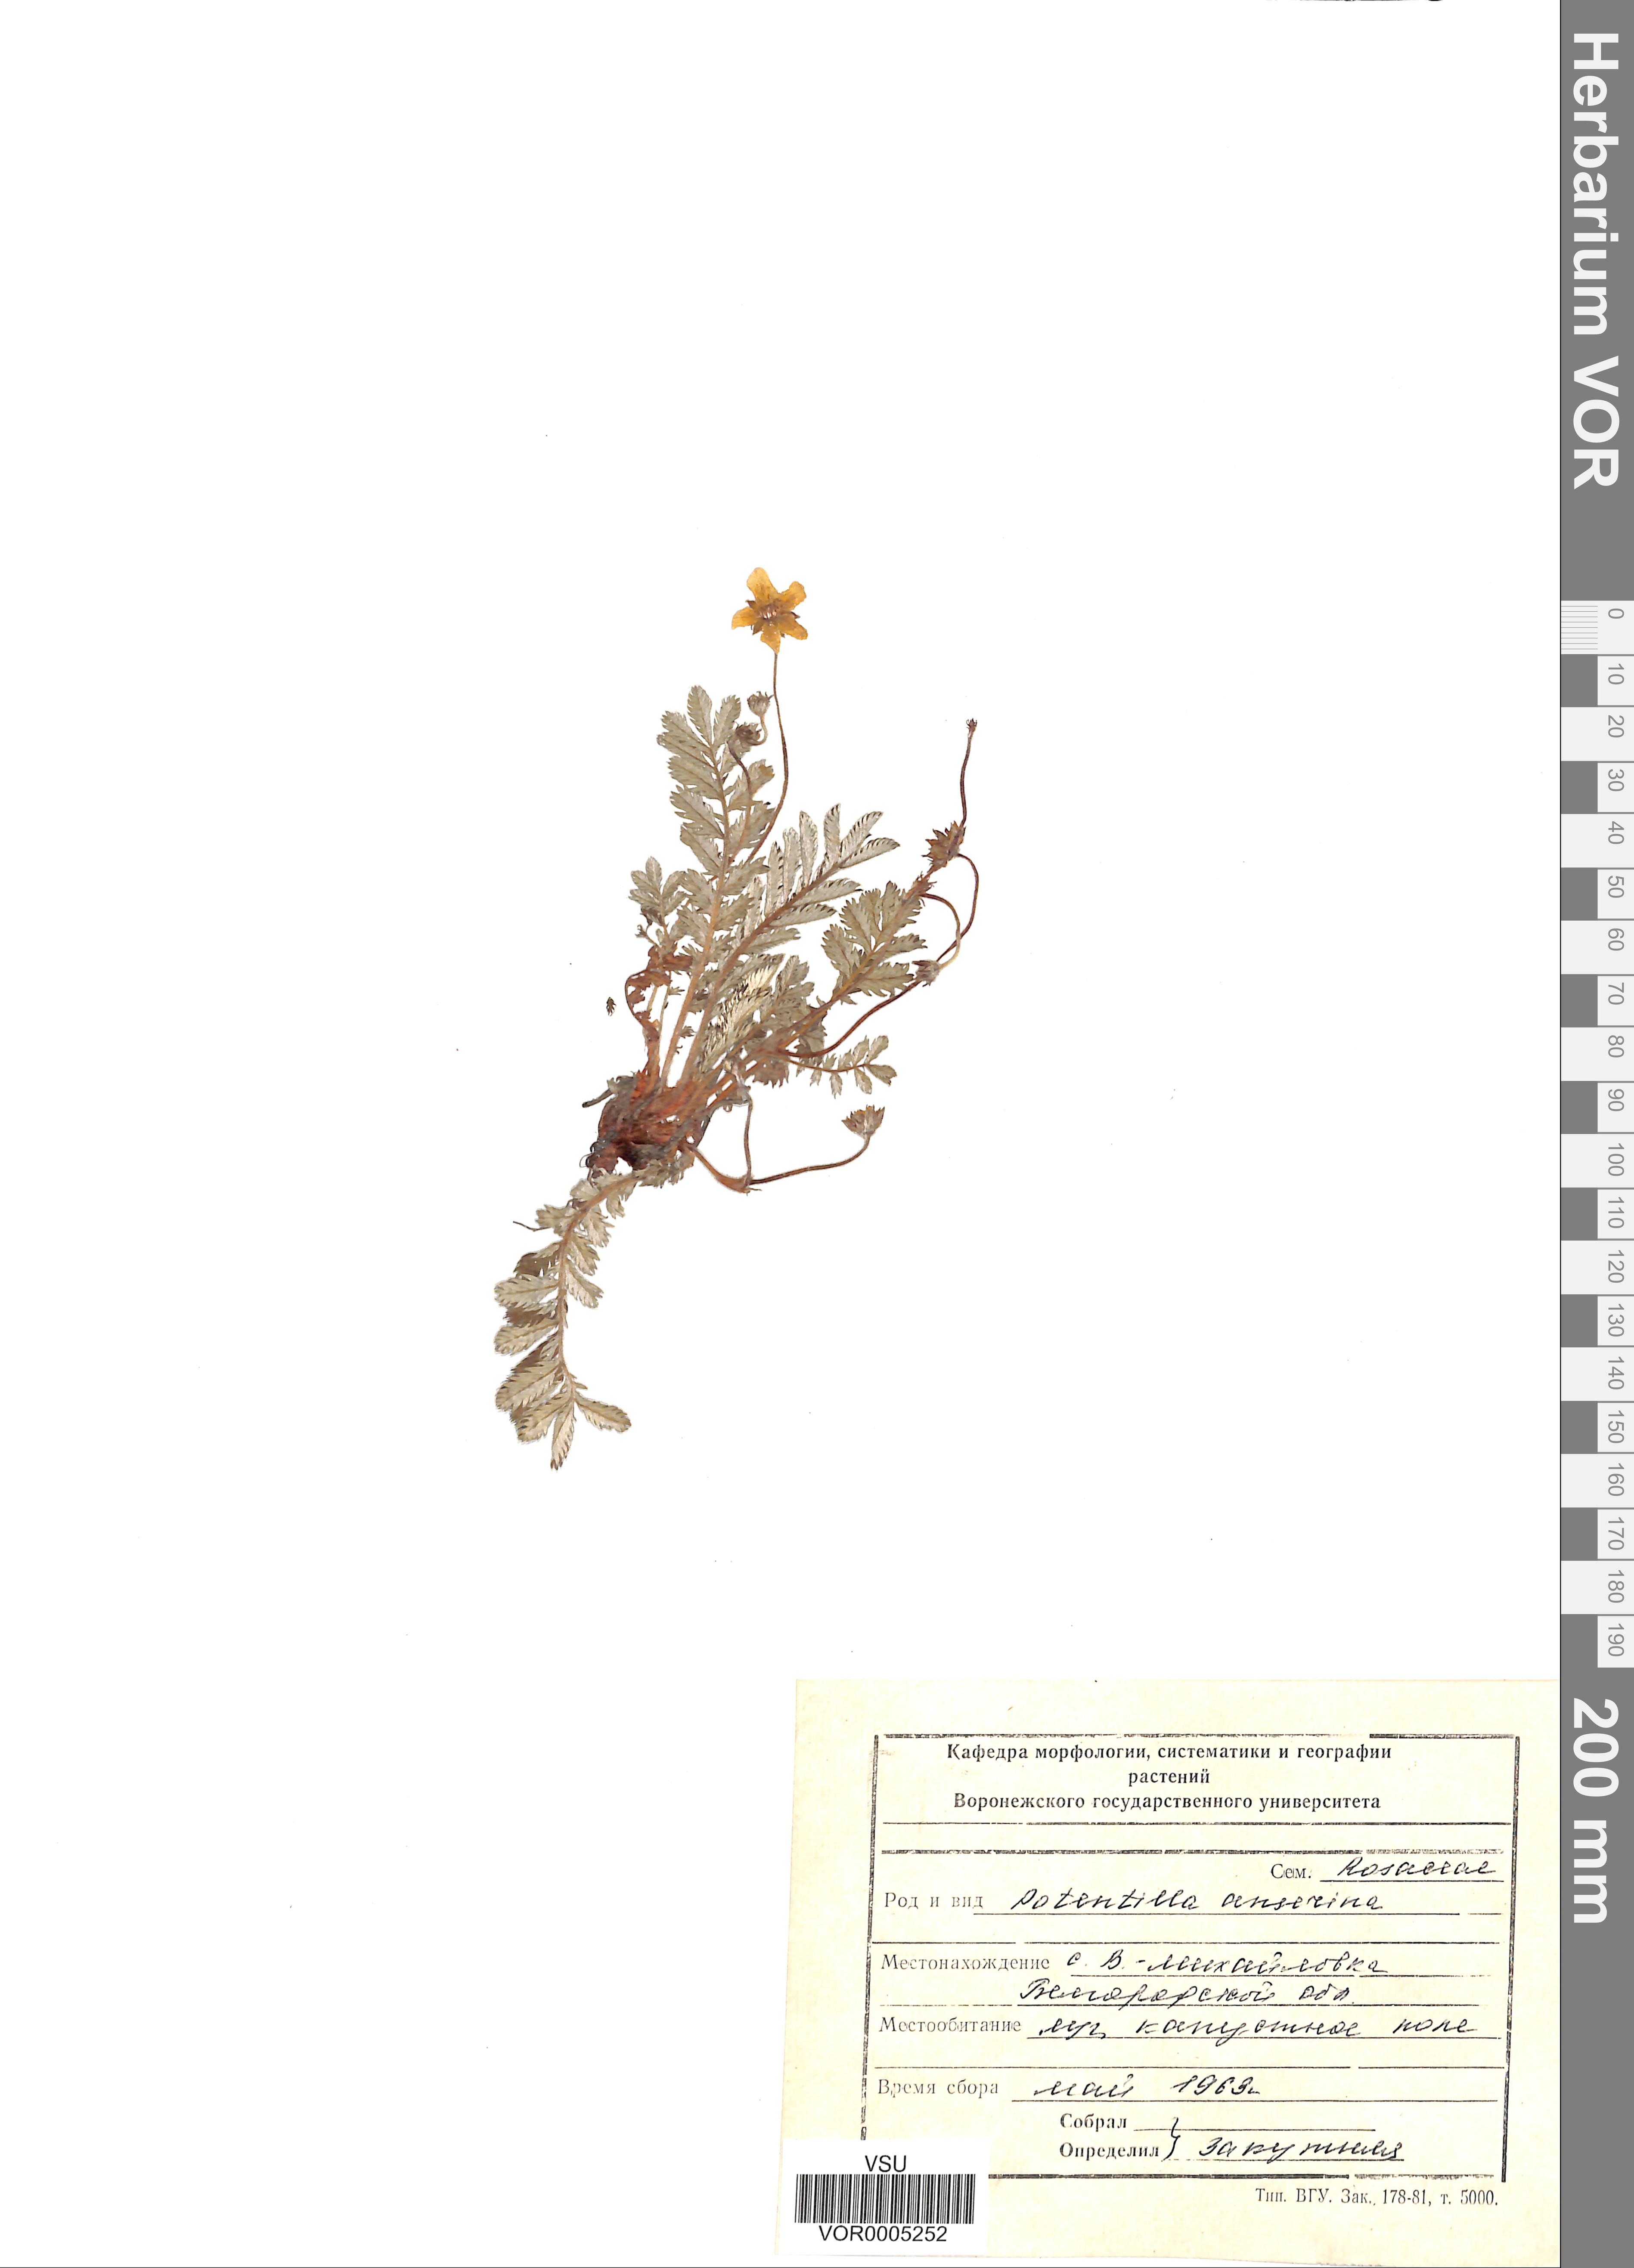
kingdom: Plantae
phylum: Tracheophyta
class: Magnoliopsida
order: Rosales
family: Rosaceae
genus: Argentina
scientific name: Argentina anserina
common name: Common silverweed
